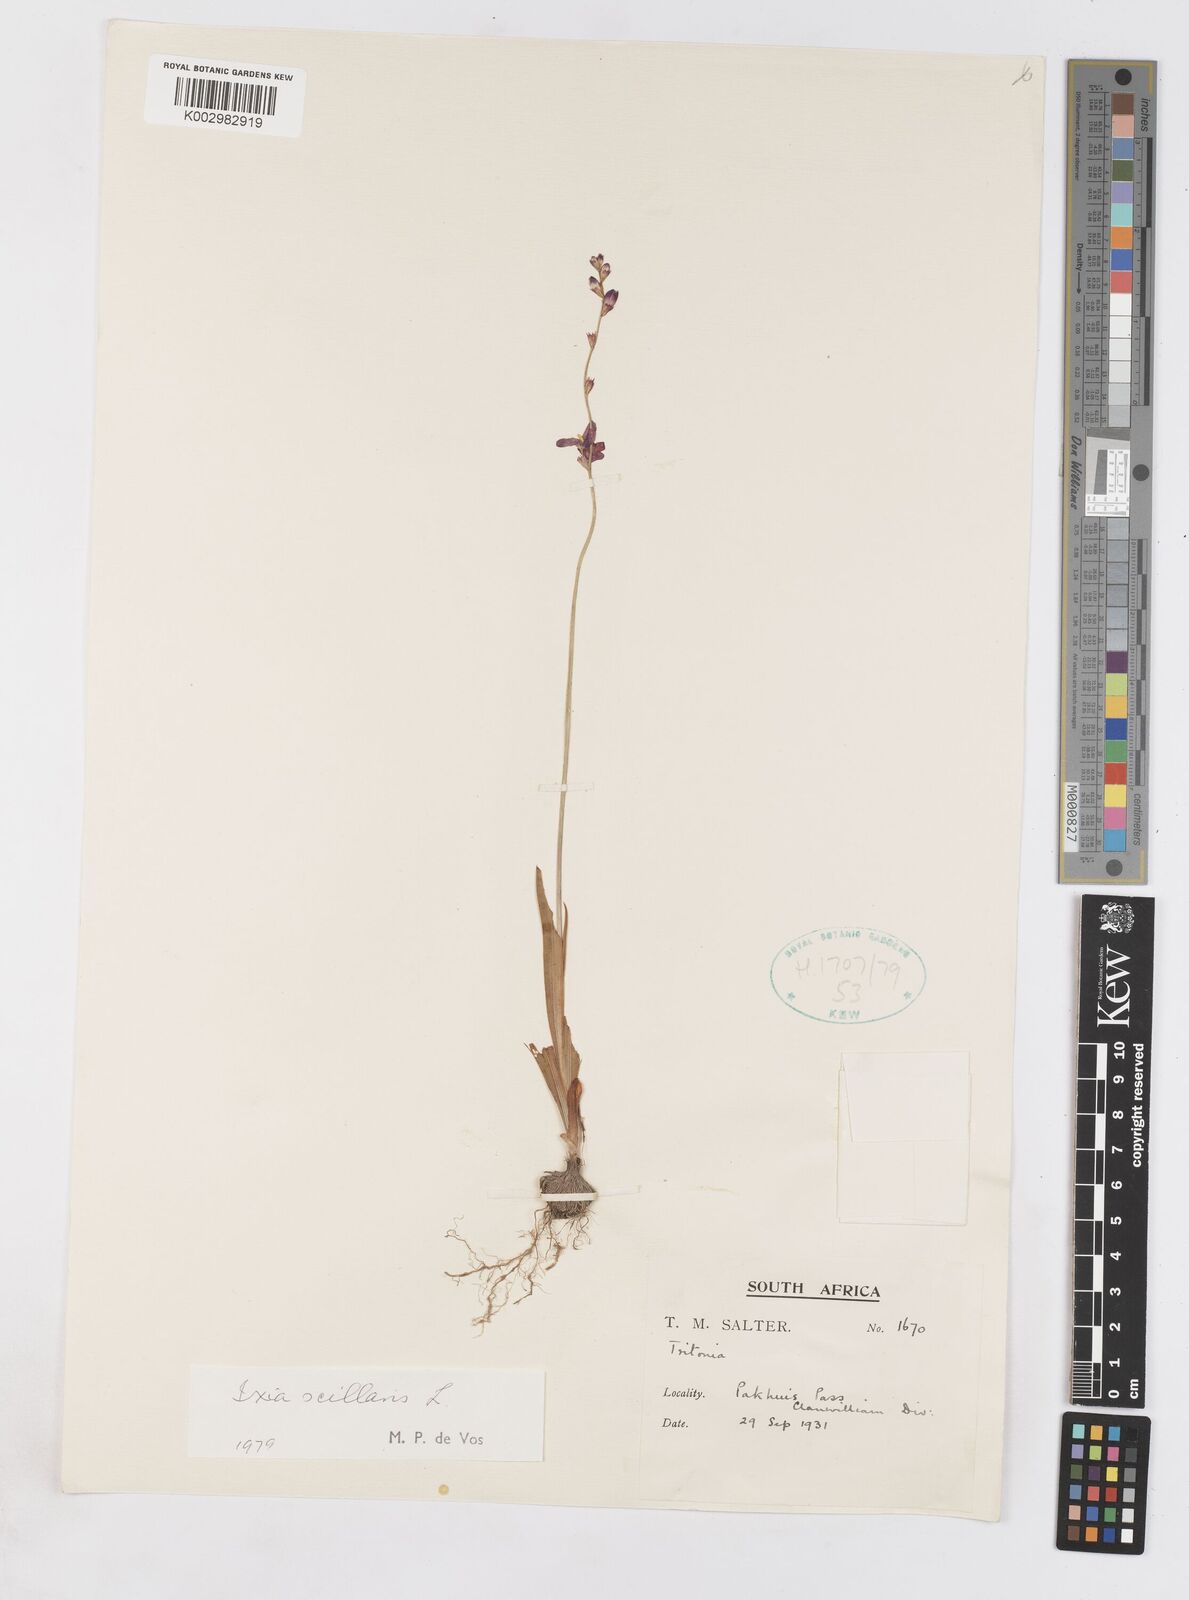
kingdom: Plantae
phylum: Tracheophyta
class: Liliopsida
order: Asparagales
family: Iridaceae
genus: Ixia
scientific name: Ixia scillaris
